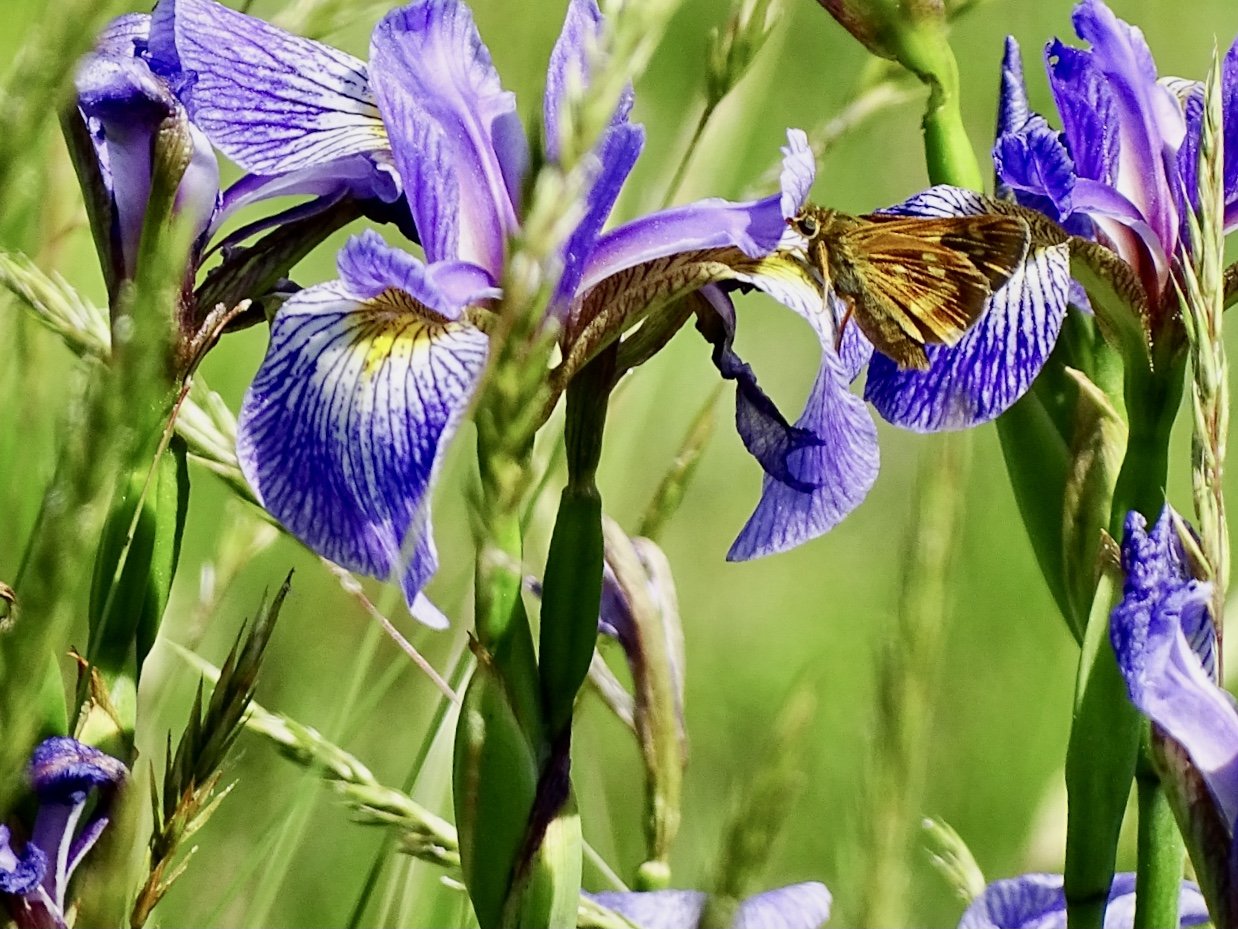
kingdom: Animalia
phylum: Arthropoda
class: Insecta
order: Lepidoptera
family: Hesperiidae
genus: Polites
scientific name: Polites
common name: Long Dash Skipper
